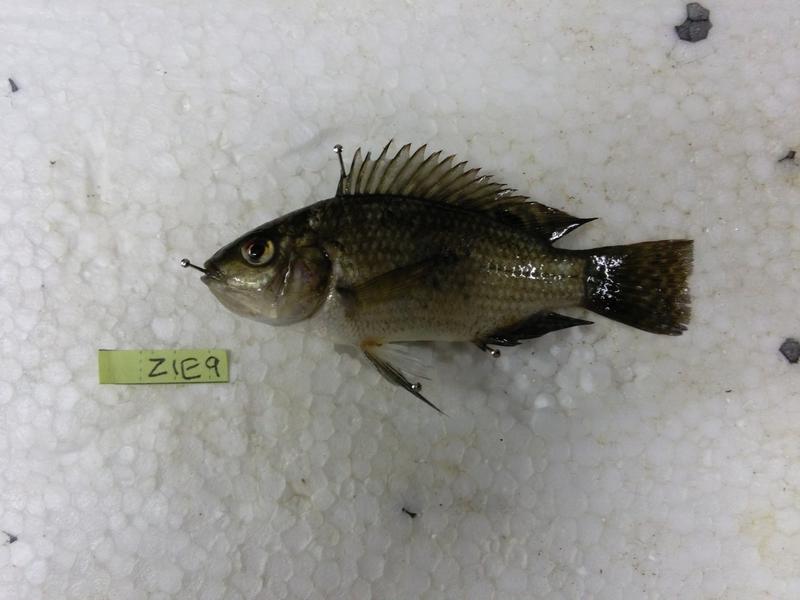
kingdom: Animalia
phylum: Chordata
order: Perciformes
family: Cichlidae
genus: Oreochromis
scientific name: Oreochromis urolepis
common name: Wami tilapia
